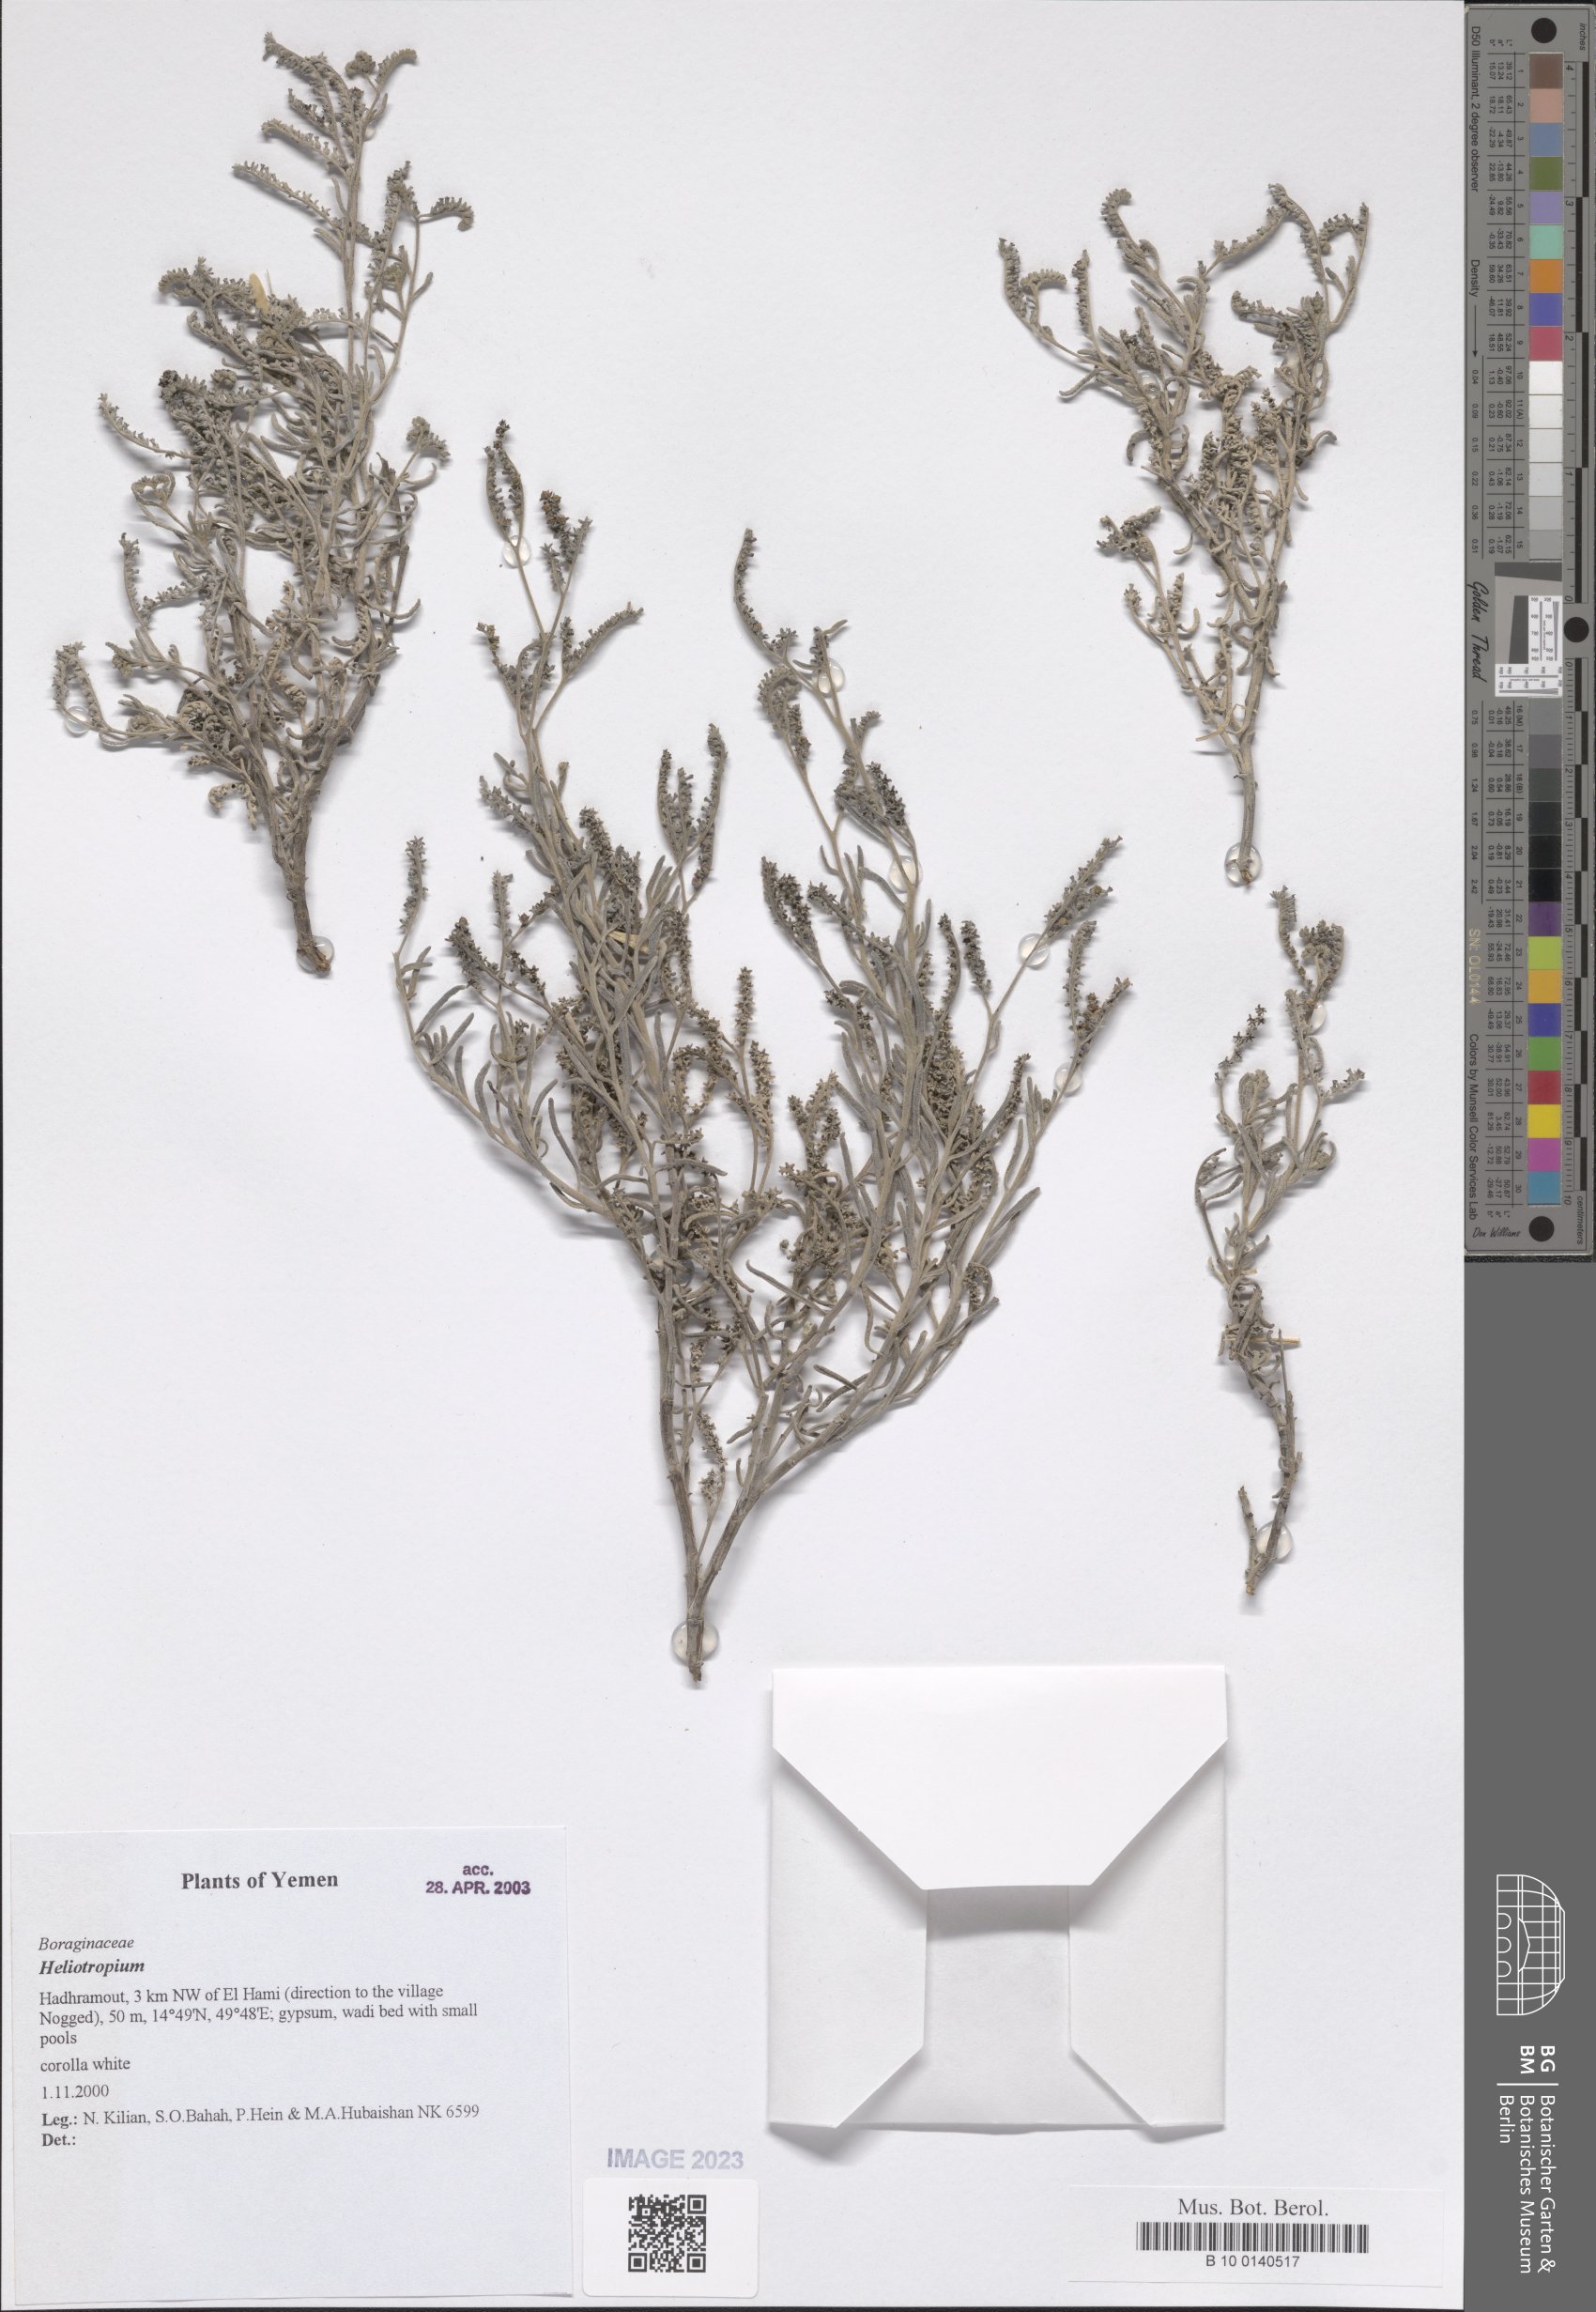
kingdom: Plantae
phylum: Tracheophyta
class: Magnoliopsida
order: Boraginales
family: Heliotropiaceae
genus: Heliotropium
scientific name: Heliotropium
